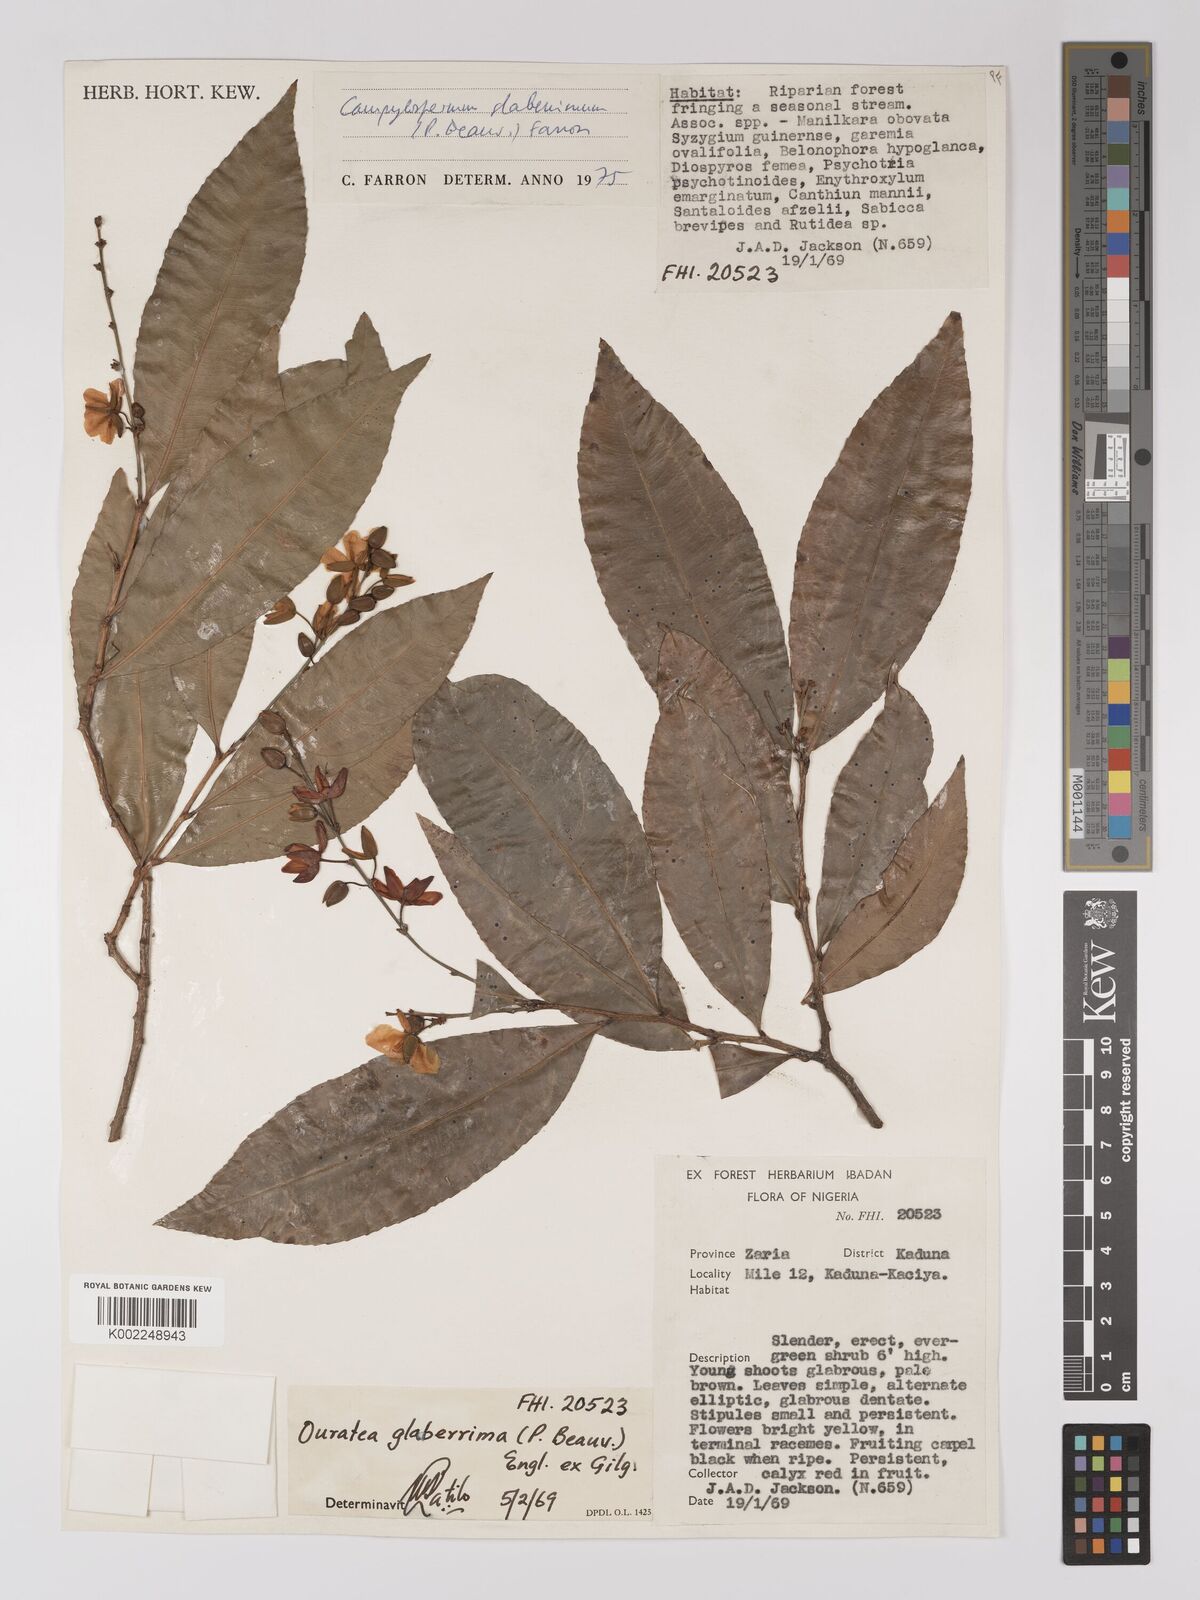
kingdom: Plantae
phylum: Tracheophyta
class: Magnoliopsida
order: Malpighiales
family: Ochnaceae
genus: Campylospermum
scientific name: Campylospermum glaberrimum
